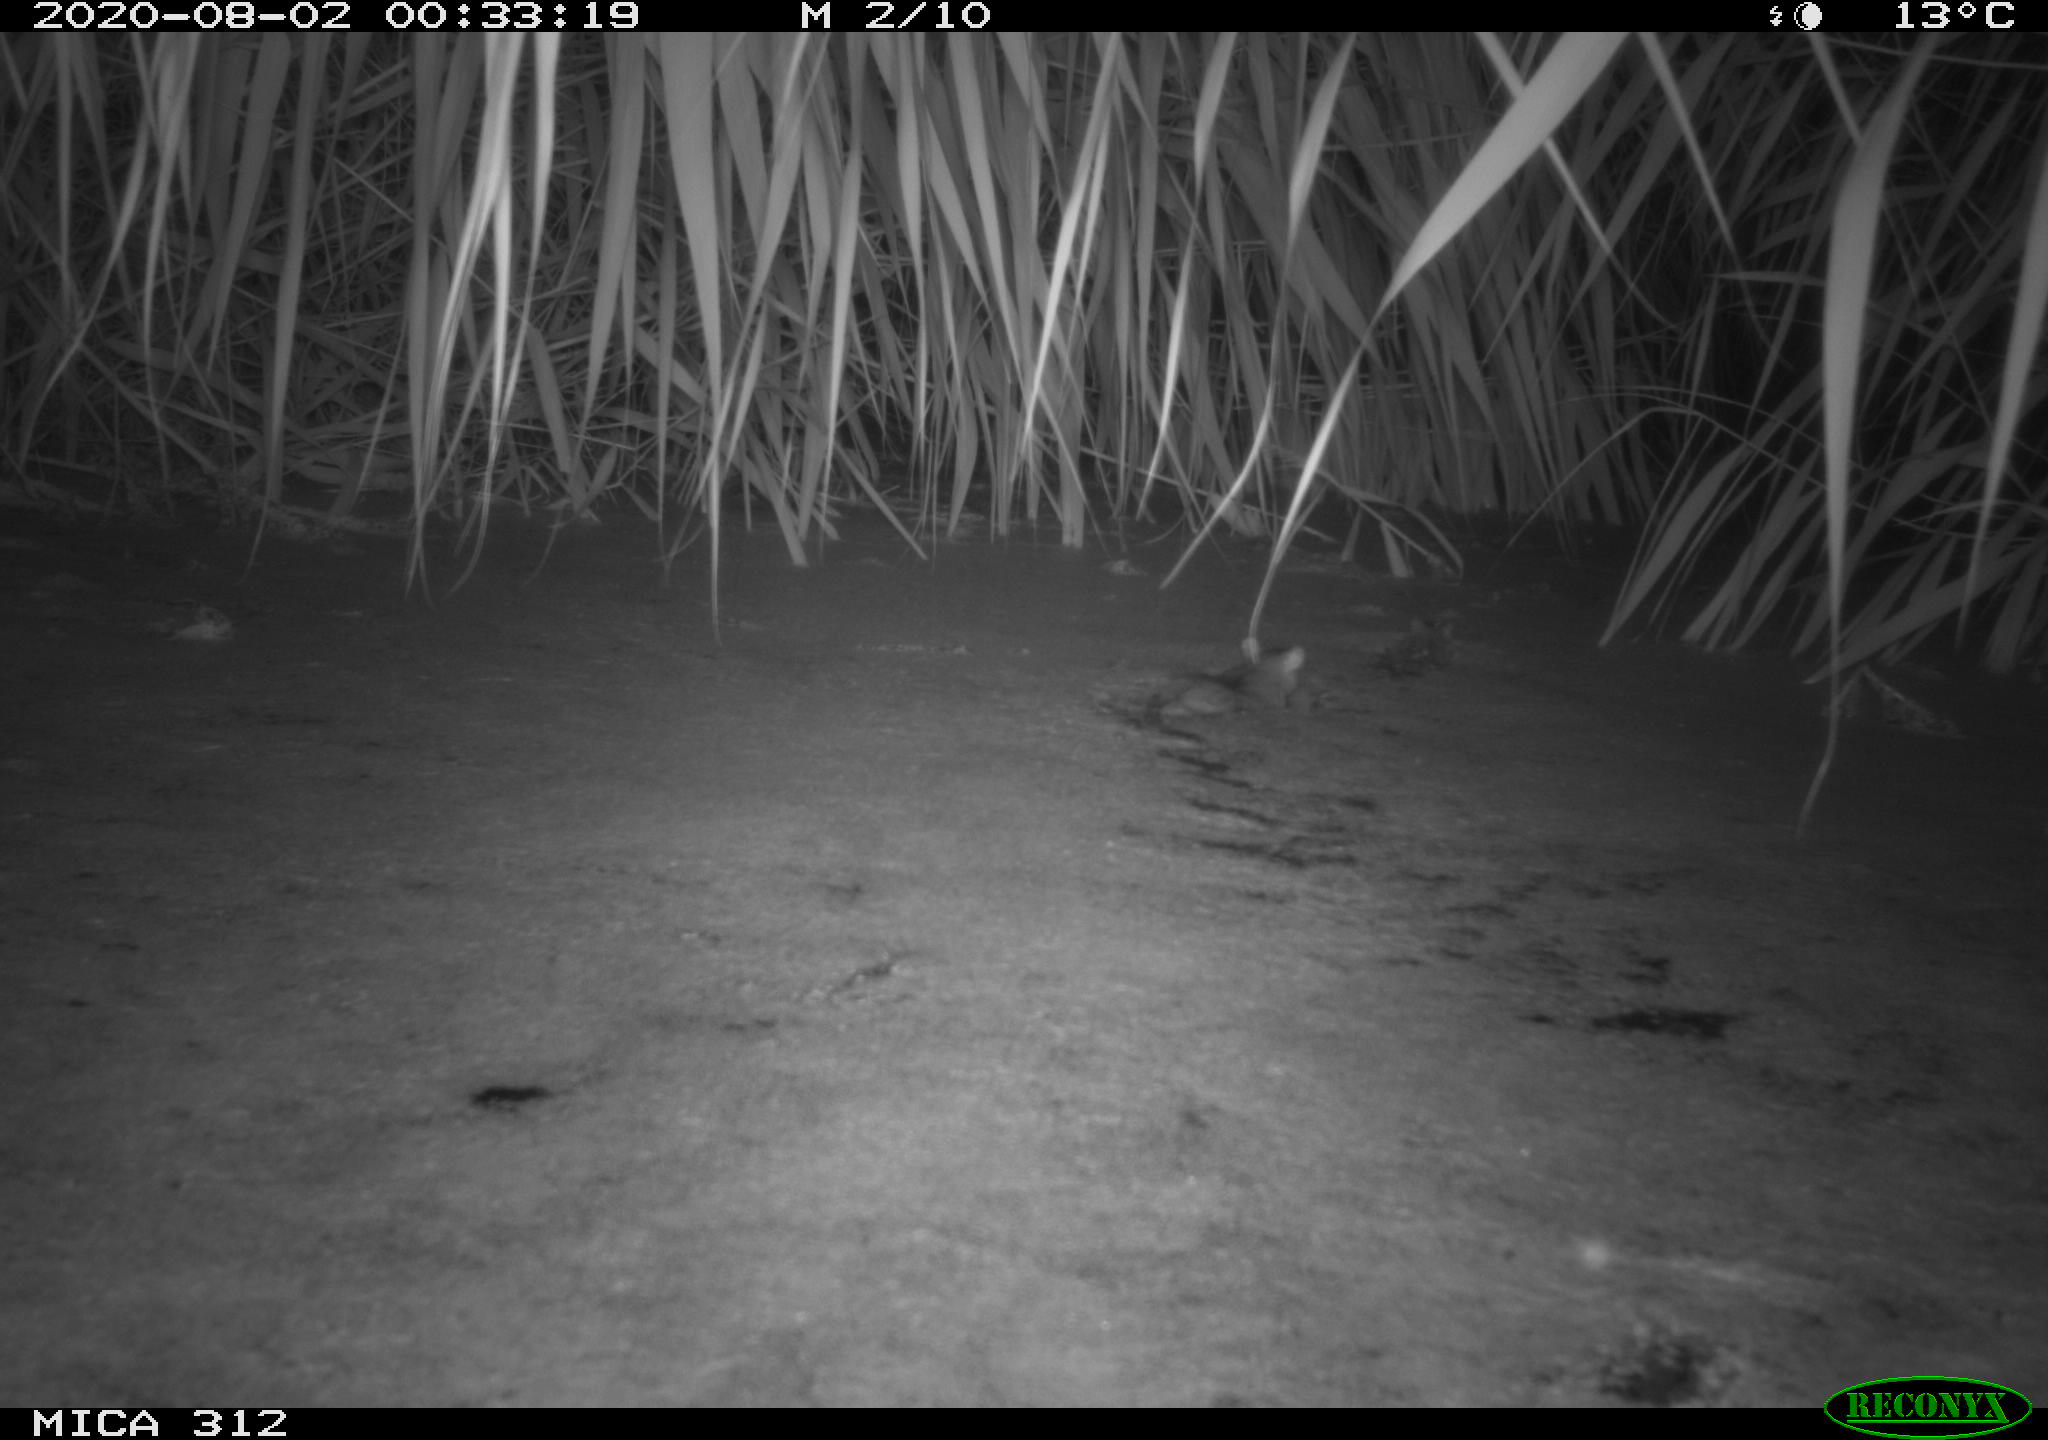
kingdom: Animalia
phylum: Chordata
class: Mammalia
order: Rodentia
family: Muridae
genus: Rattus
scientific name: Rattus norvegicus
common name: Brown rat
